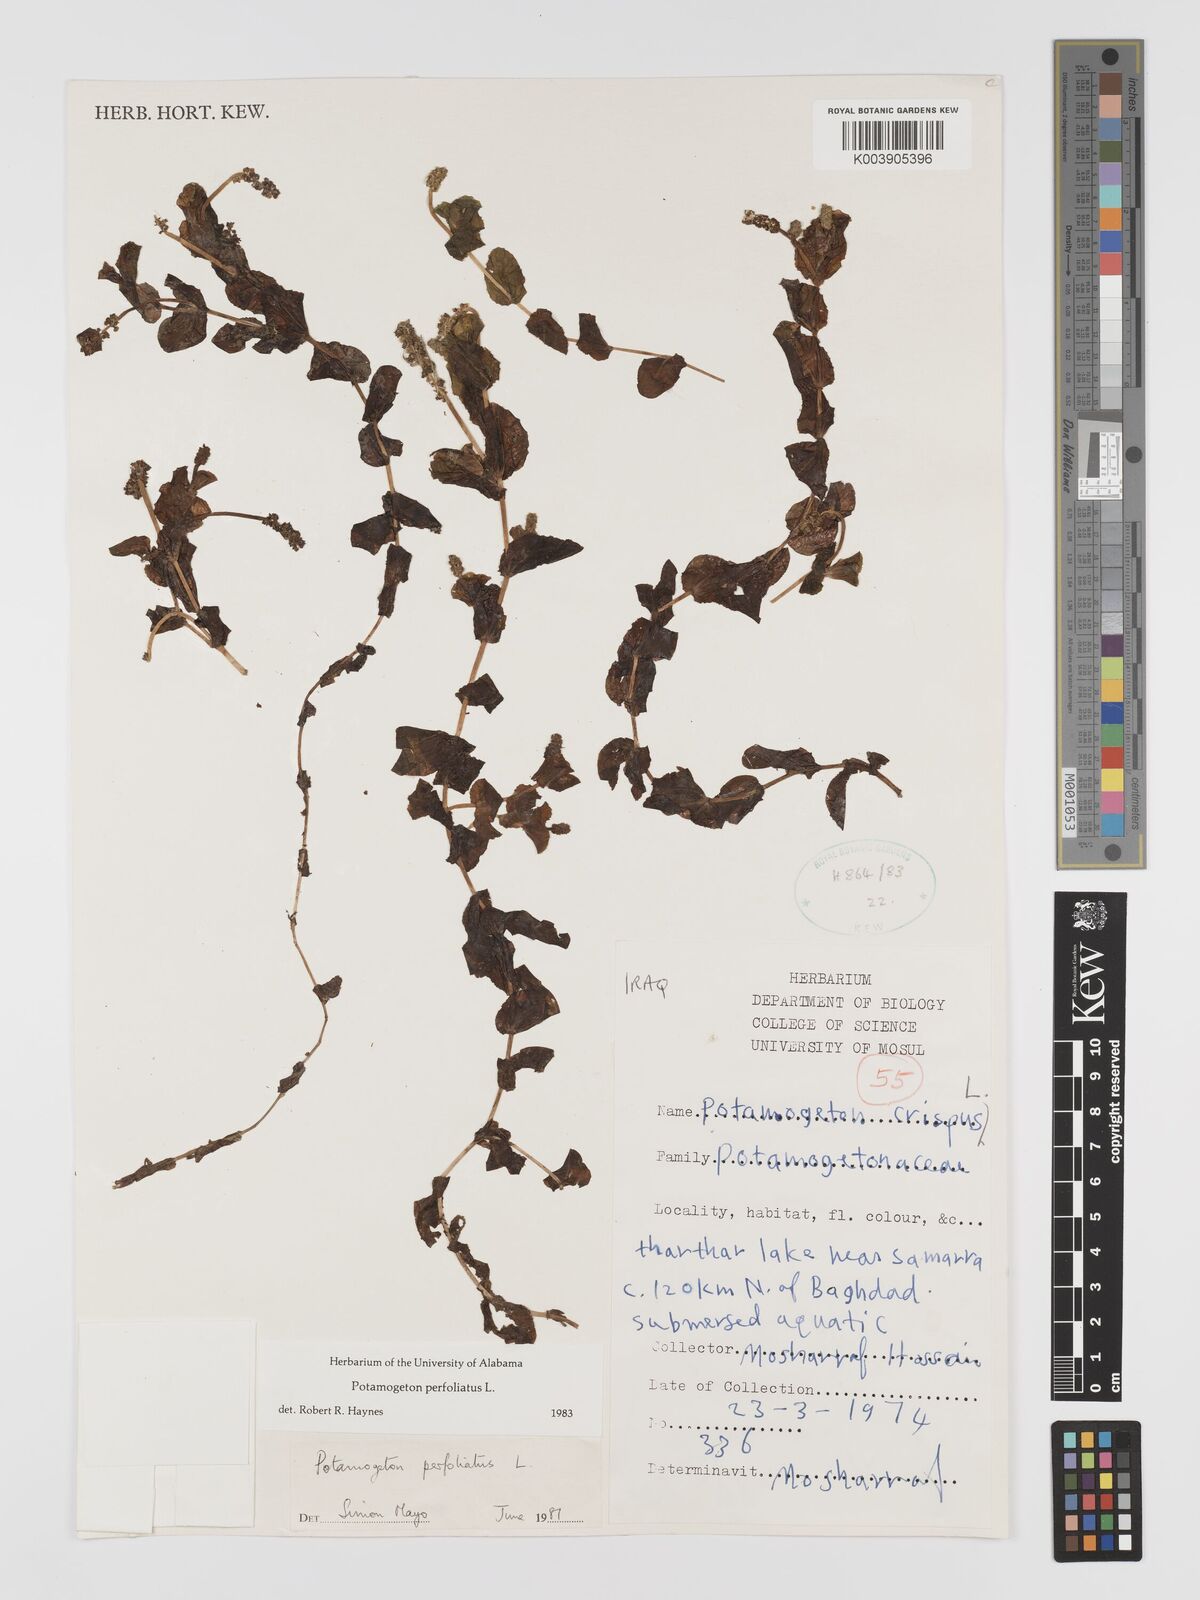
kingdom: Plantae
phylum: Tracheophyta
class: Liliopsida
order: Alismatales
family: Potamogetonaceae
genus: Potamogeton
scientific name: Potamogeton perfoliatus
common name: Perfoliate pondweed
